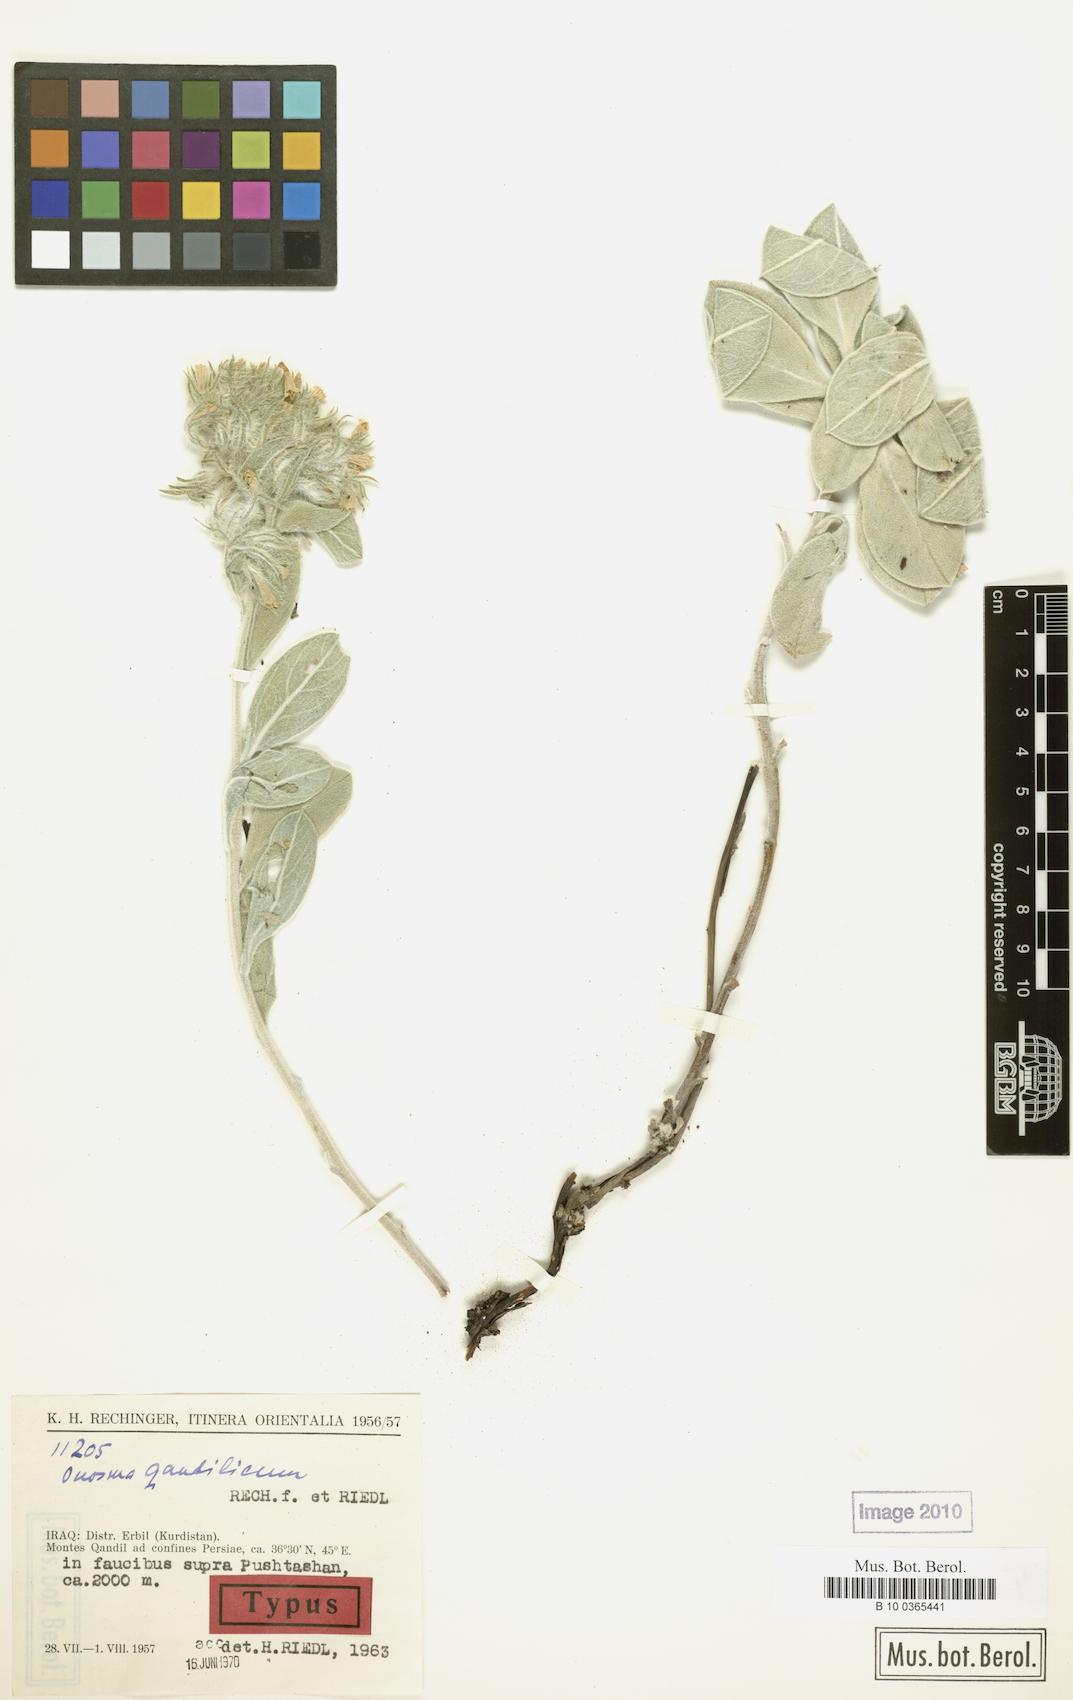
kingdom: Plantae
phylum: Tracheophyta
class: Magnoliopsida
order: Boraginales
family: Boraginaceae
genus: Onosma
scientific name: Onosma qandilica
